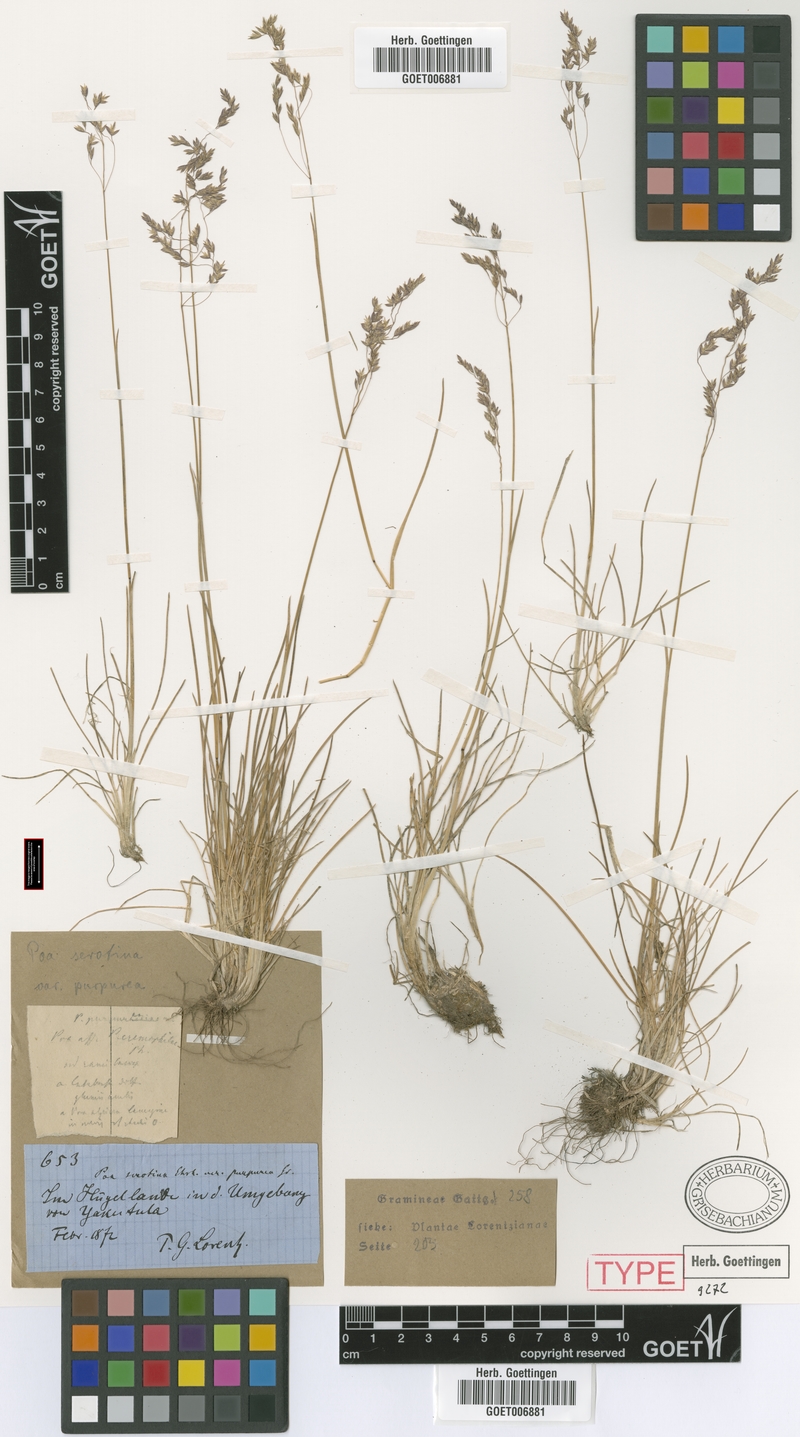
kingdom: Plantae
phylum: Tracheophyta
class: Liliopsida
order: Poales
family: Poaceae
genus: Poa
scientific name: Poa cabreriana
